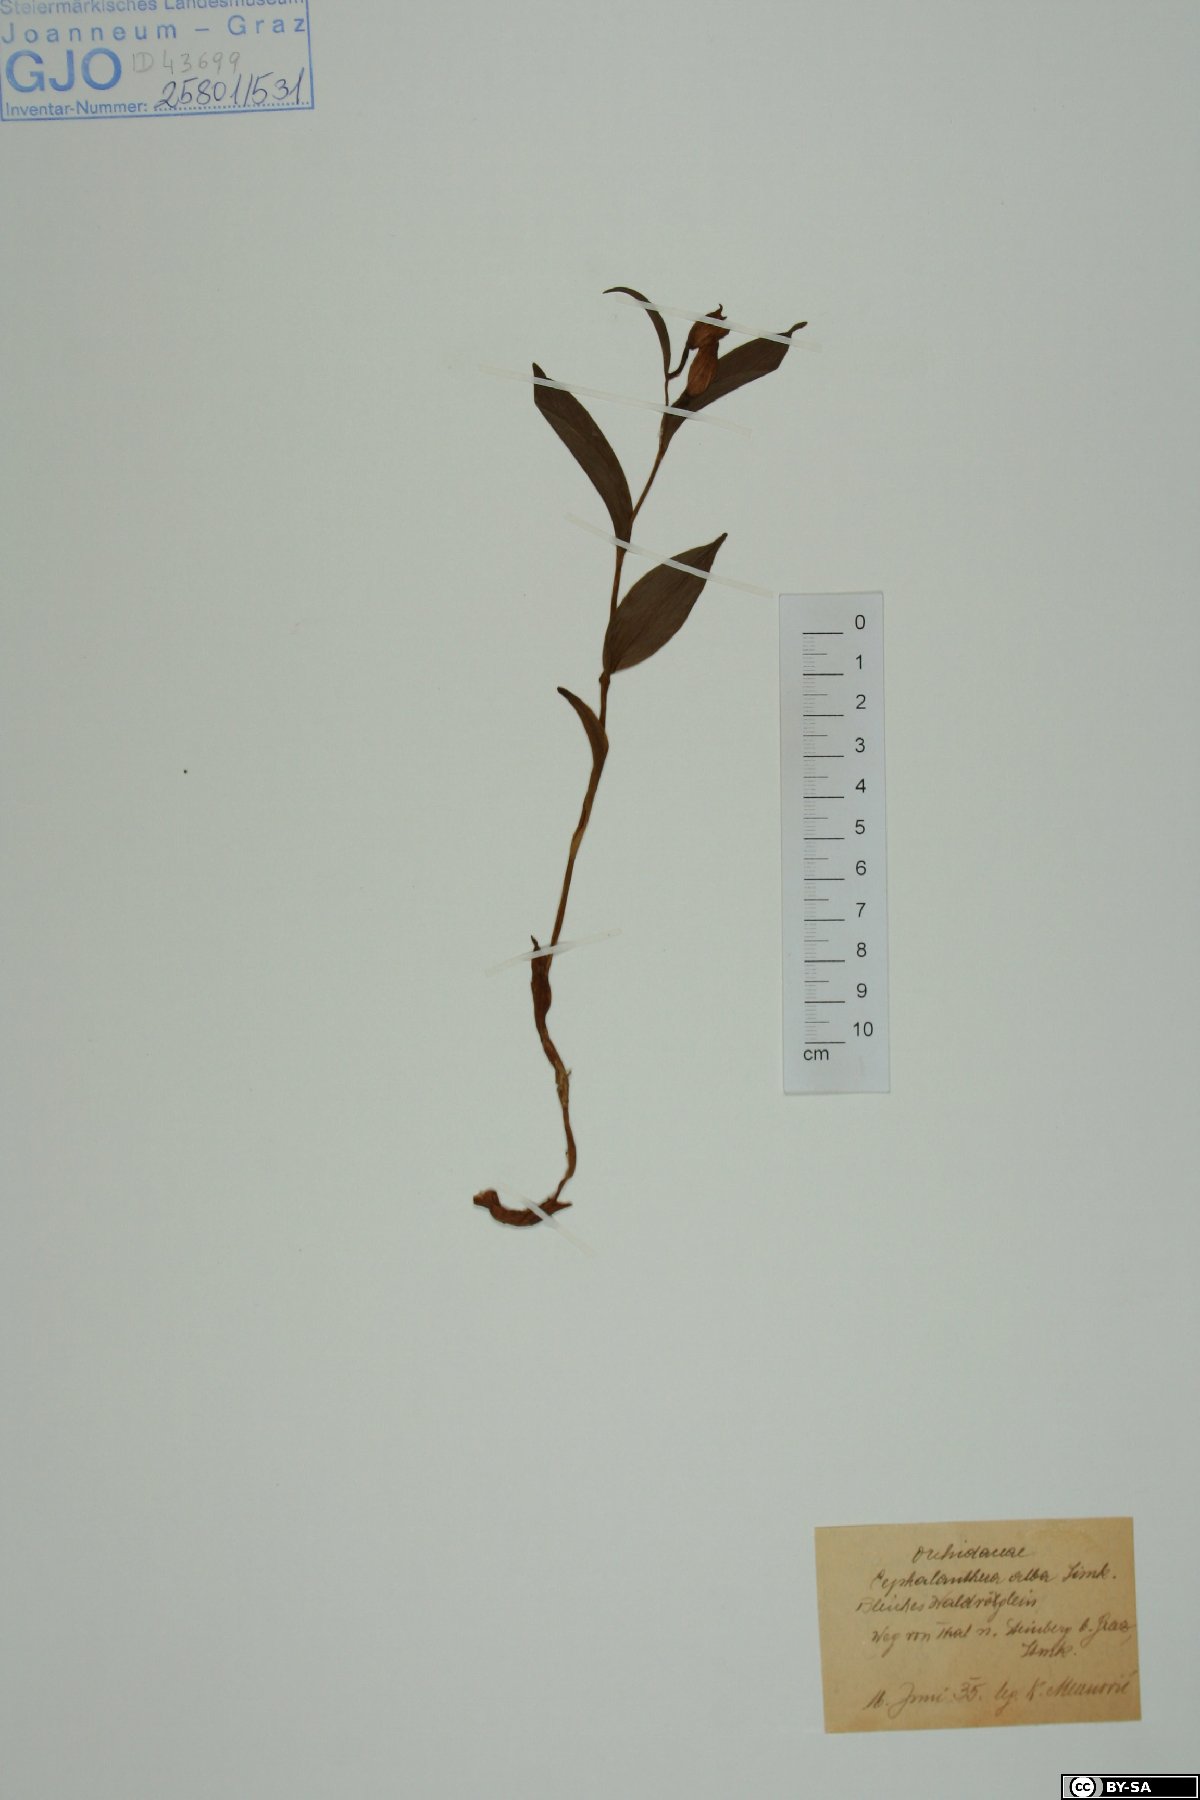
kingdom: Plantae
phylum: Tracheophyta
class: Liliopsida
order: Asparagales
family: Orchidaceae
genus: Cephalanthera
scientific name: Cephalanthera damasonium
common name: White helleborine
